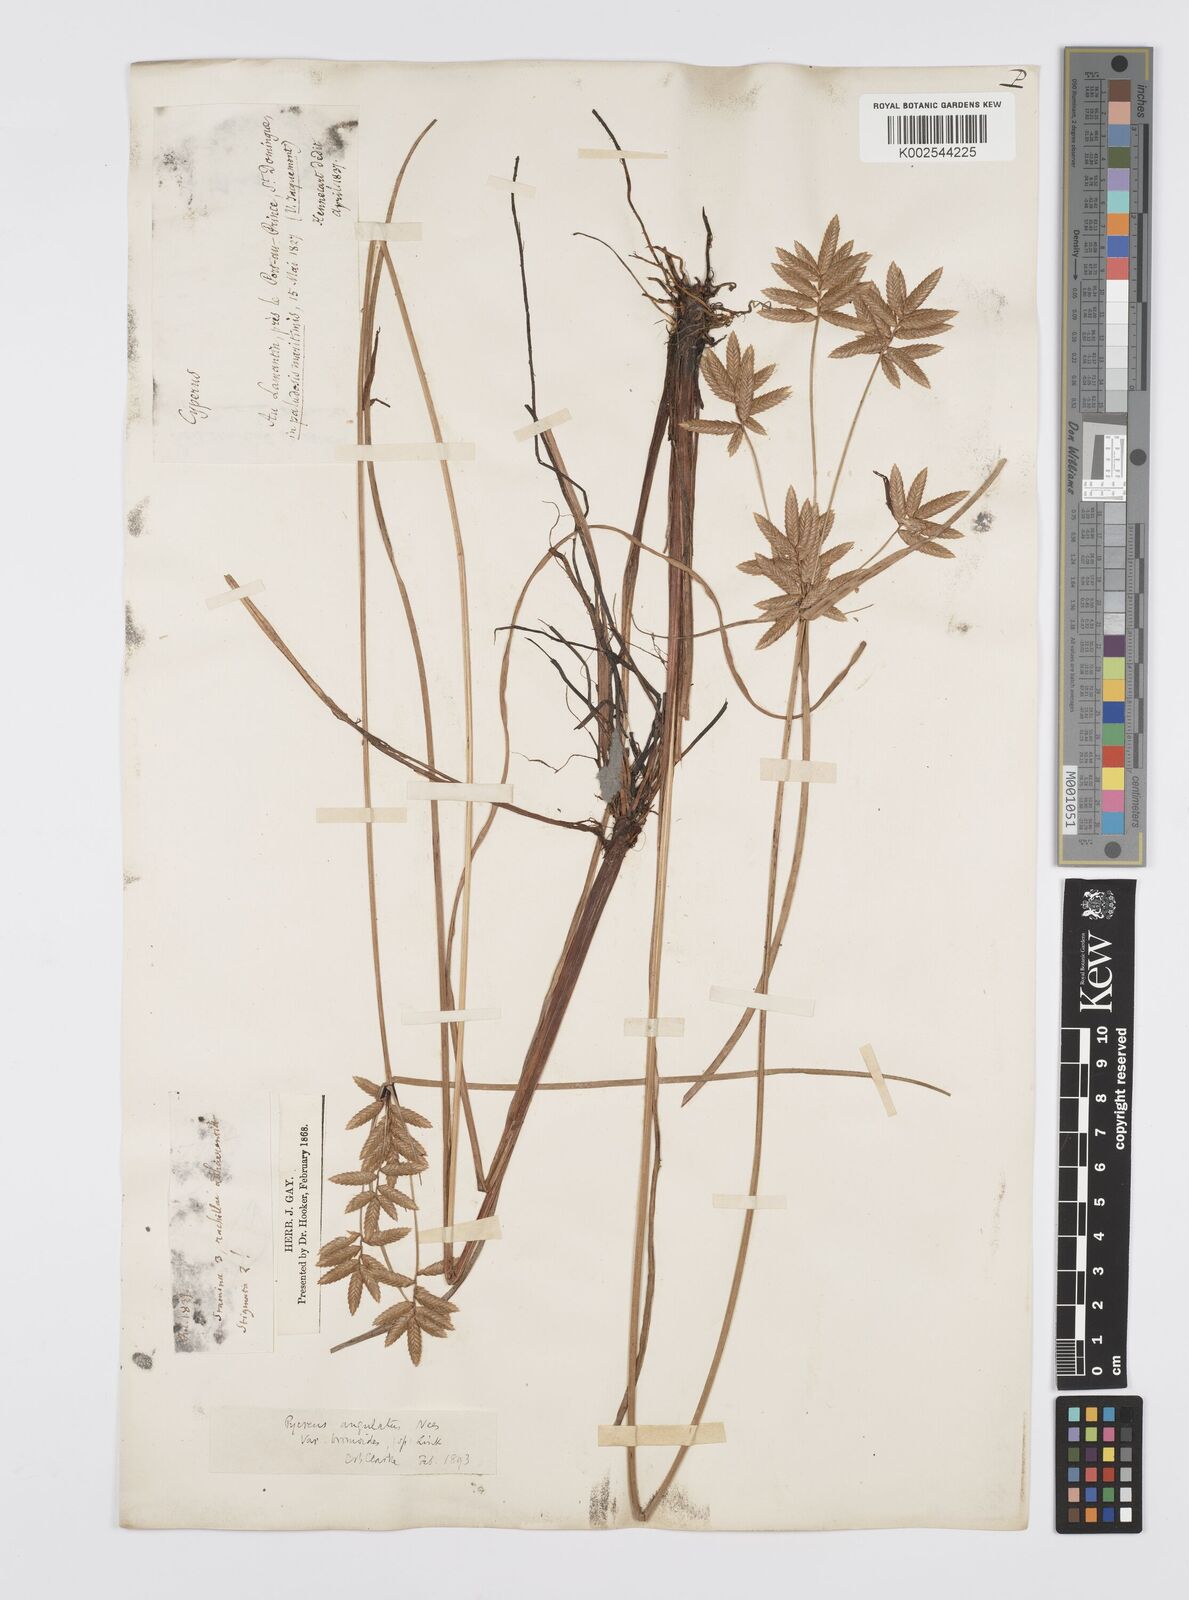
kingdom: Plantae
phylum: Tracheophyta
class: Liliopsida
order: Poales
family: Cyperaceae
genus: Cyperus
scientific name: Cyperus unioloides
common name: Uniola flatsedge
